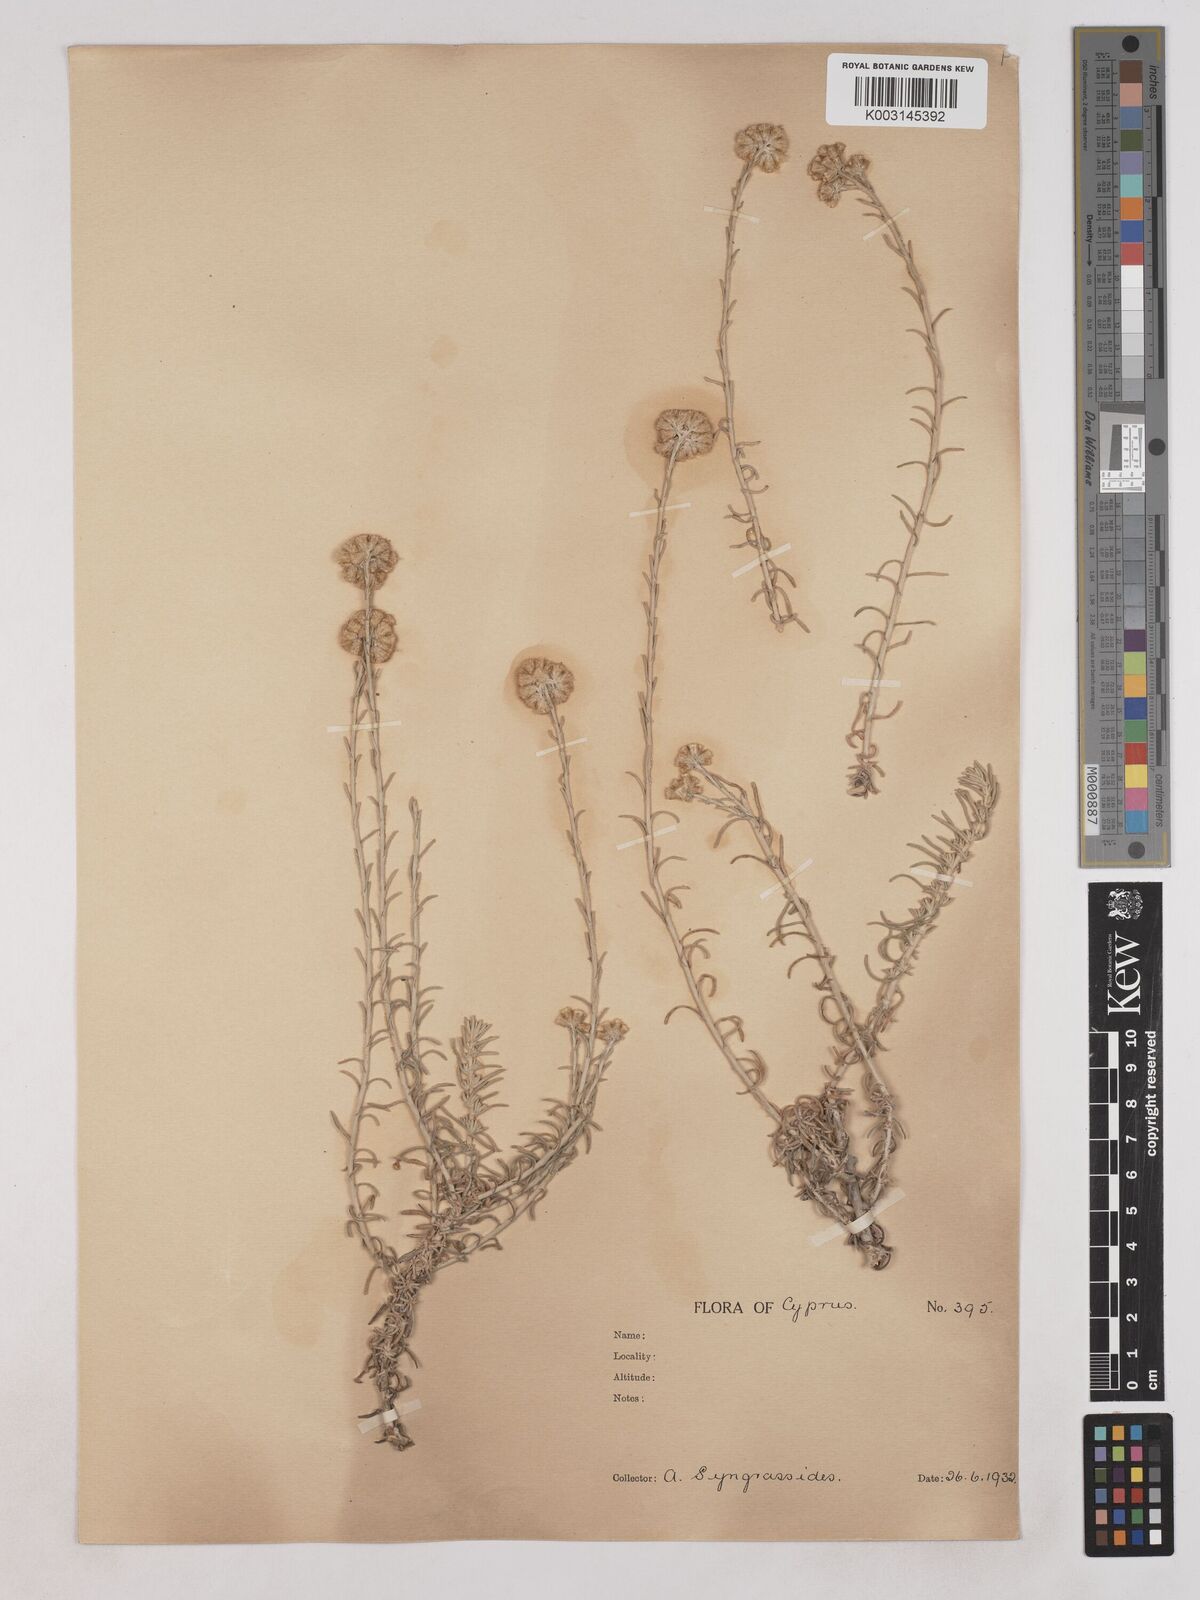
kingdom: Plantae
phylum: Tracheophyta
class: Magnoliopsida
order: Asterales
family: Asteraceae
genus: Helichrysum
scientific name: Helichrysum italicum
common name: Curryplant
